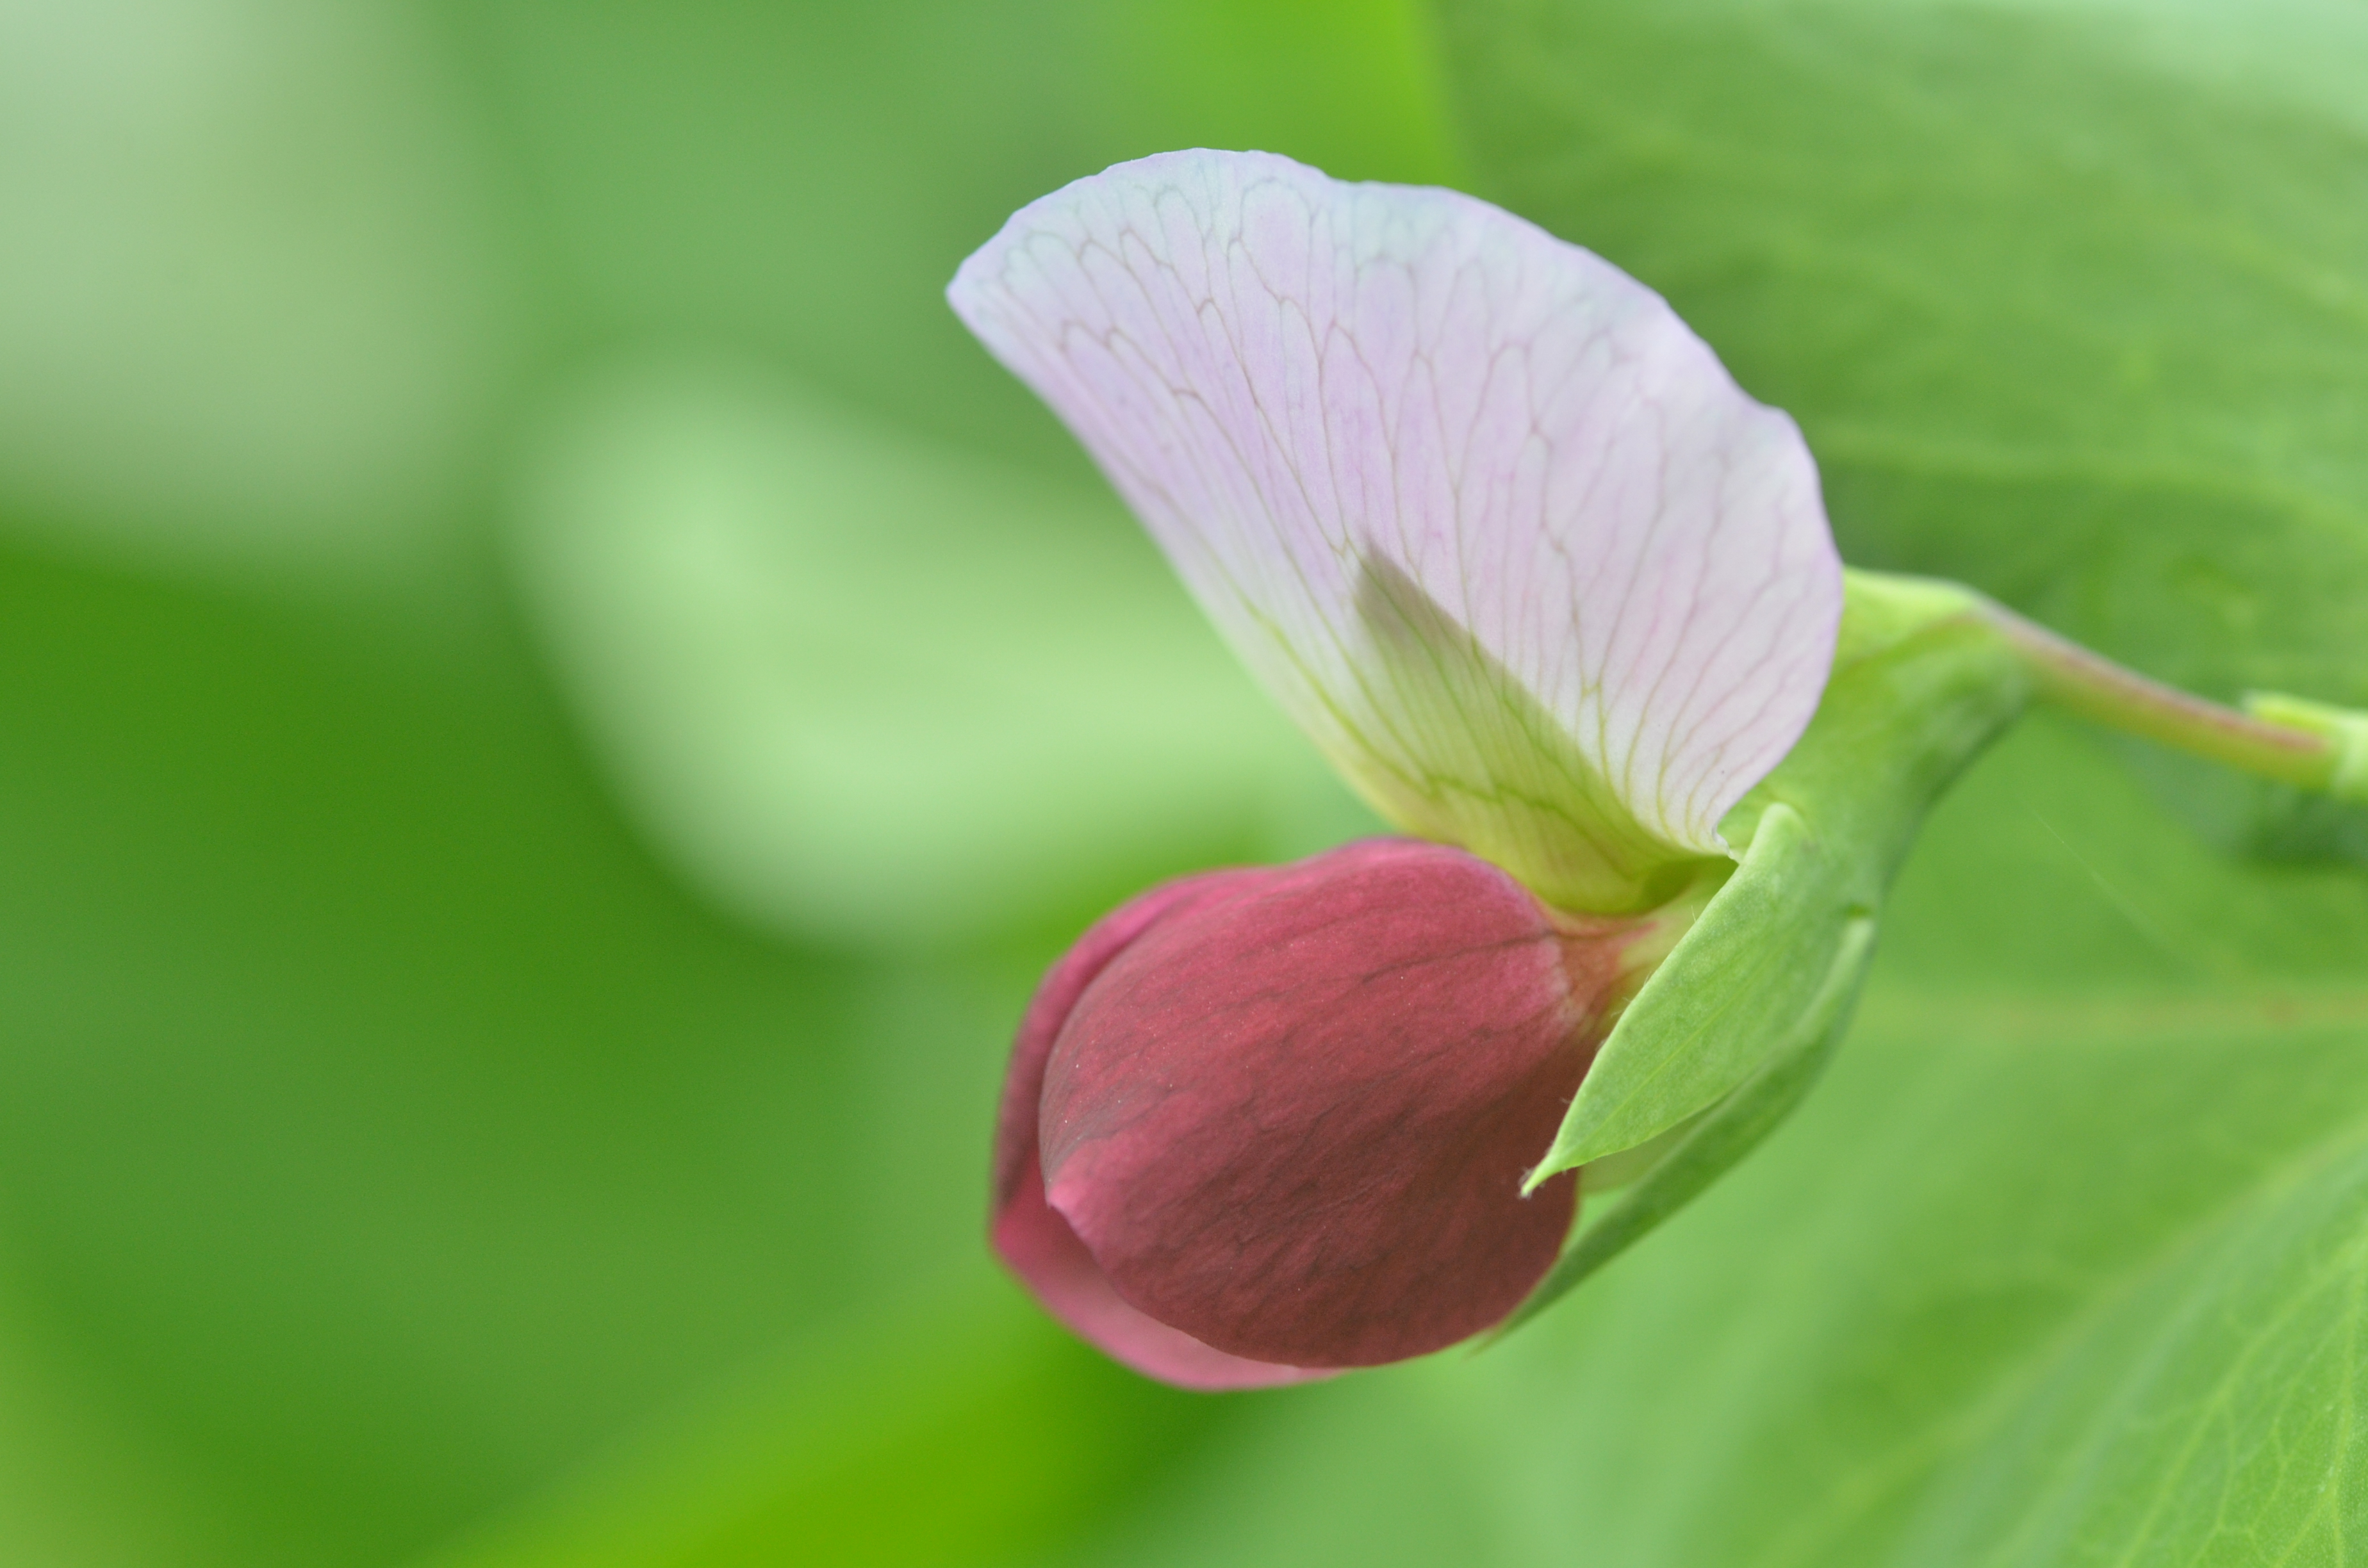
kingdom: Plantae
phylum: Tracheophyta
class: Magnoliopsida
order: Fabales
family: Fabaceae
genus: Lathyrus
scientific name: Lathyrus oleraceus
